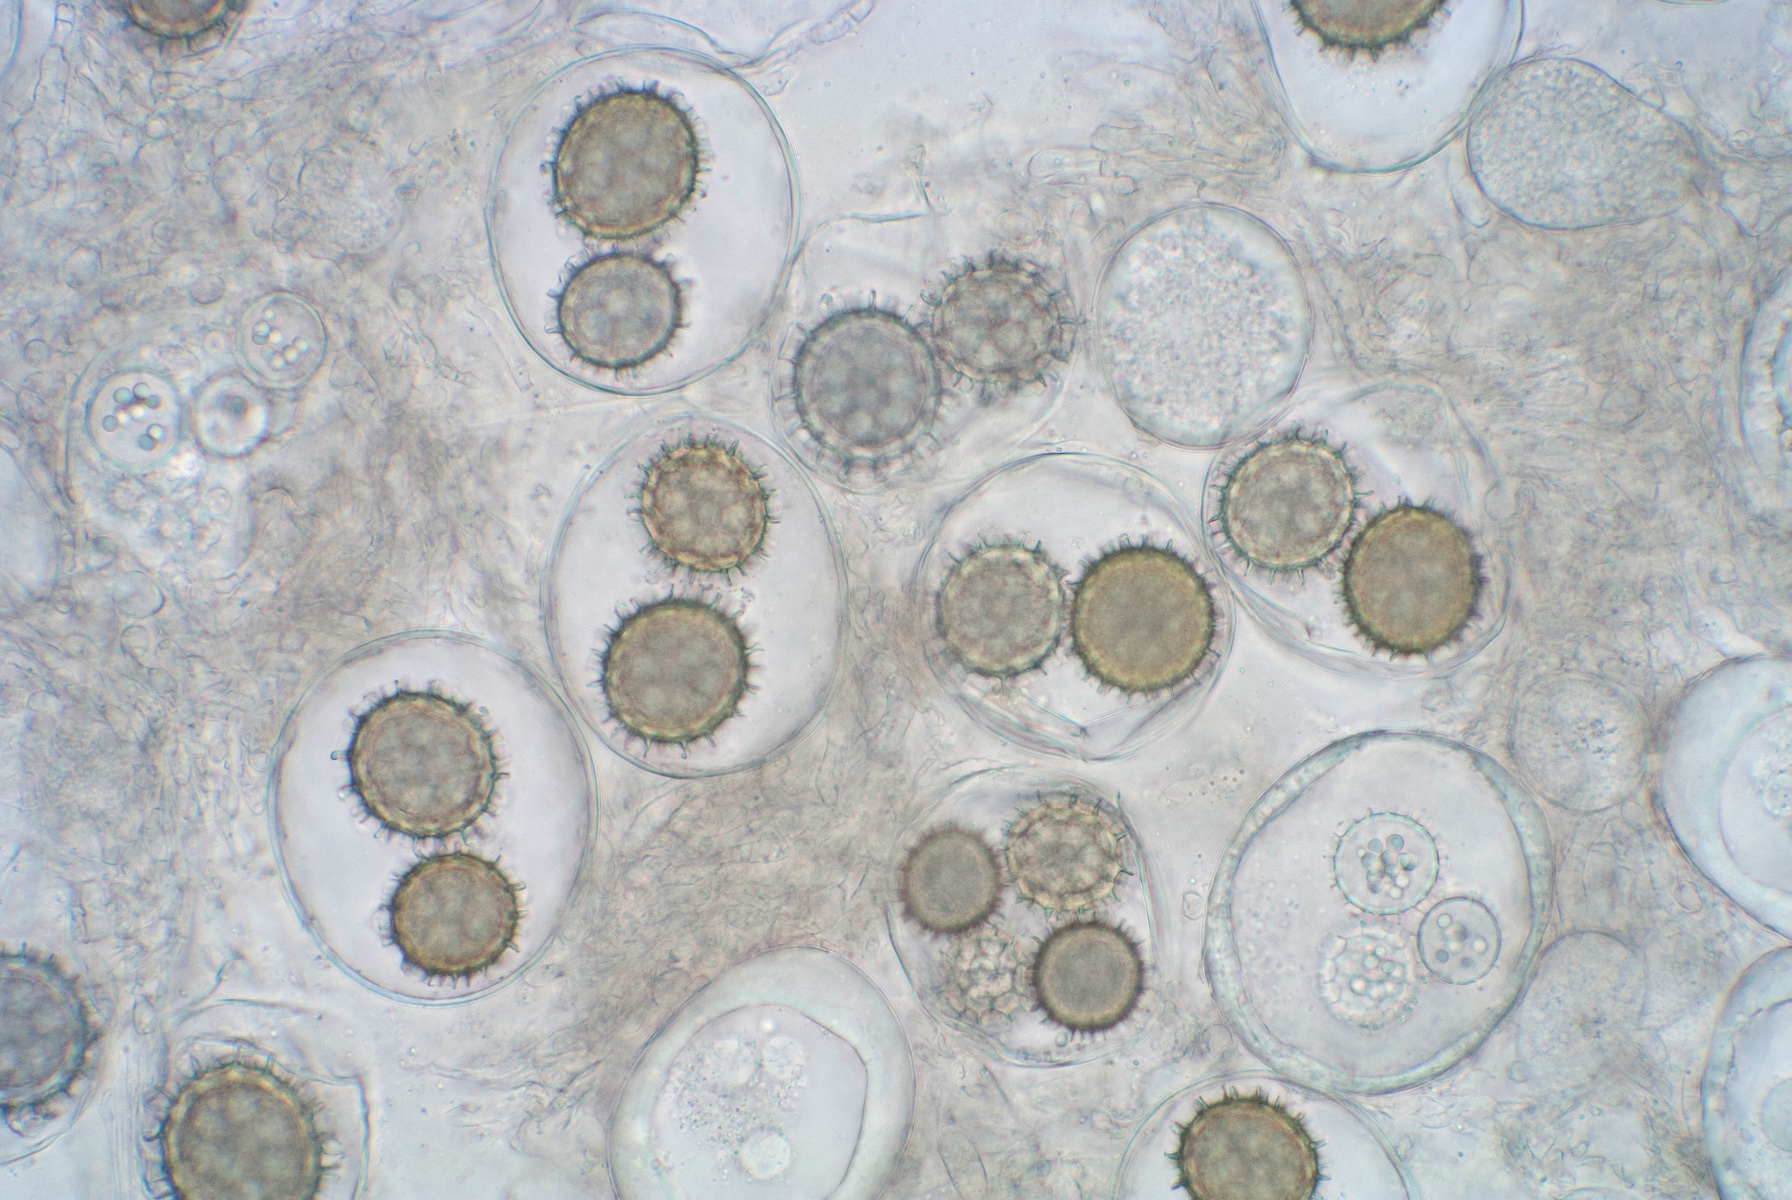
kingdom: Fungi
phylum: Ascomycota
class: Pezizomycetes
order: Pezizales
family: Tuberaceae
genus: Tuber
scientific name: Tuber anniae
